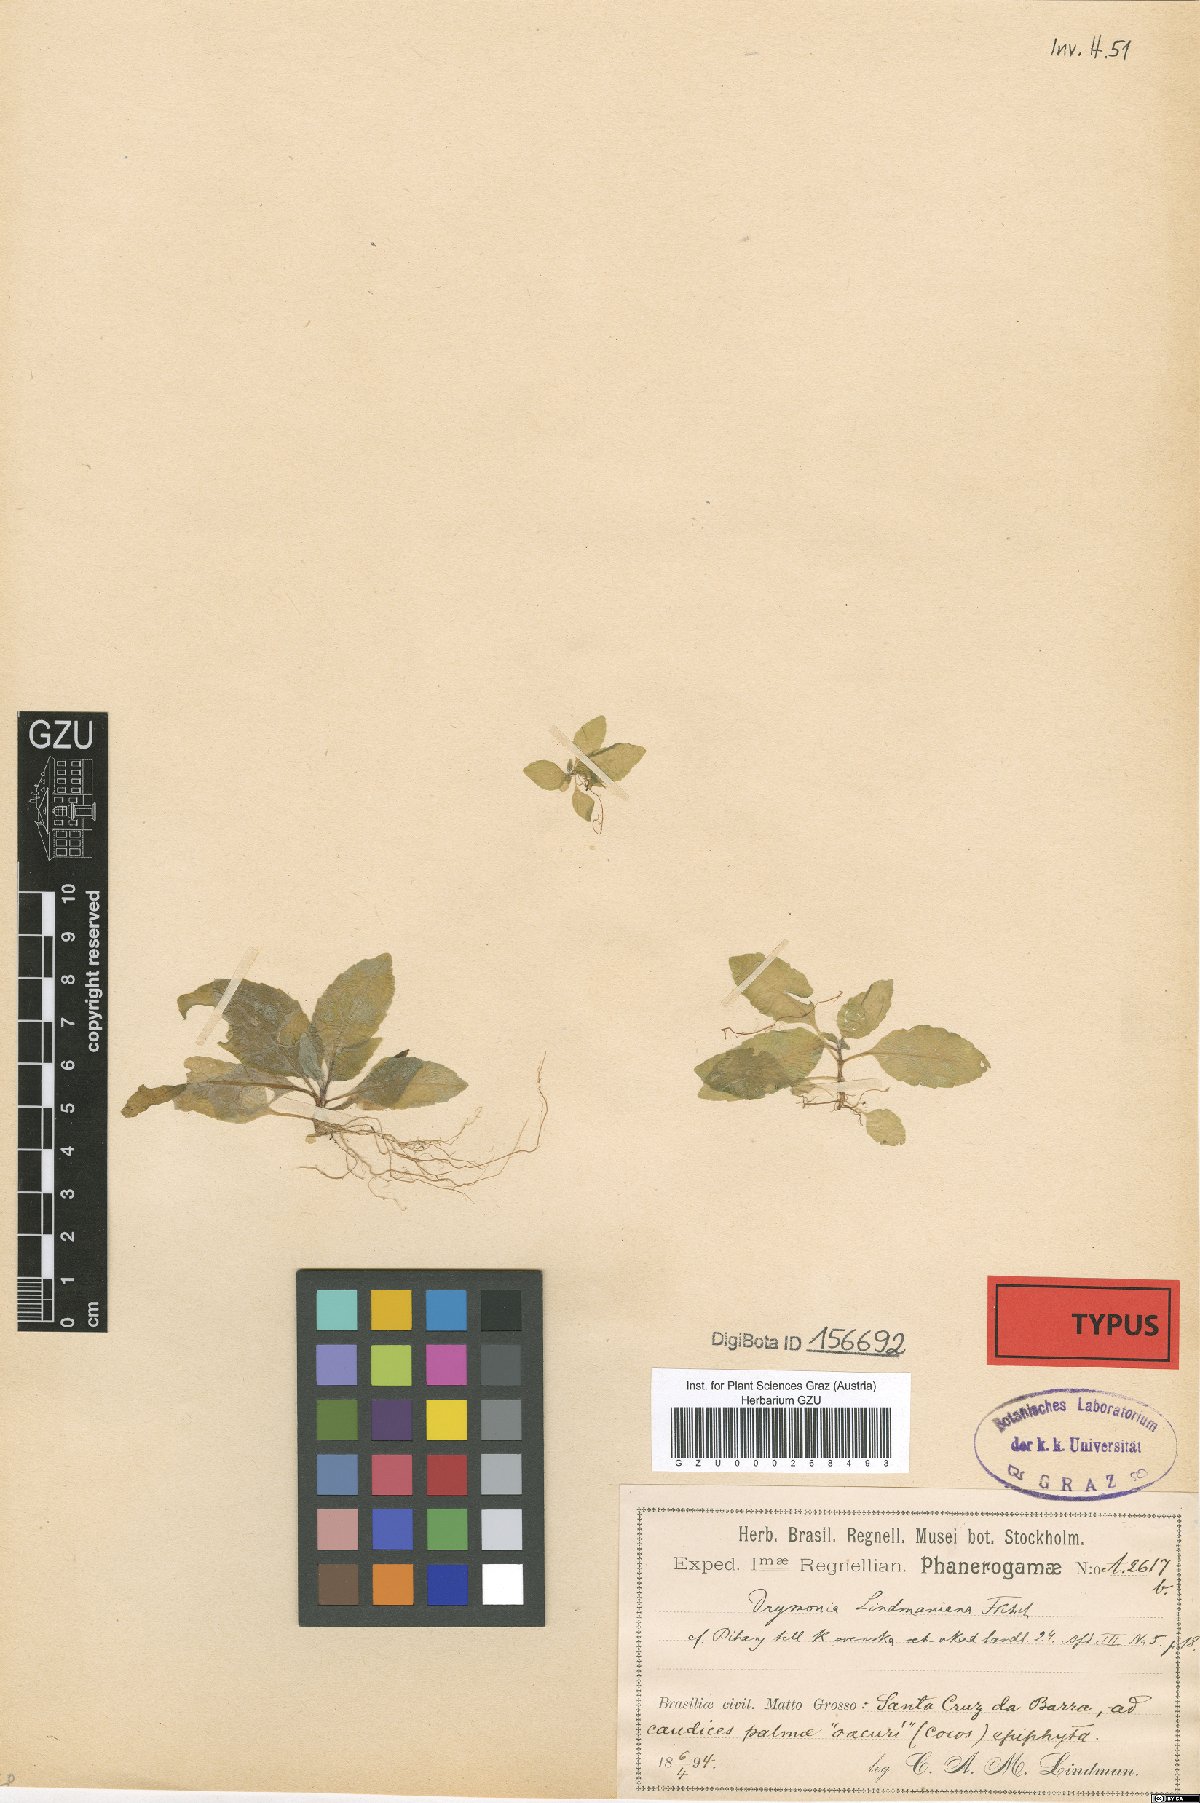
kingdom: Plantae
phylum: Tracheophyta
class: Magnoliopsida
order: Lamiales
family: Gesneriaceae
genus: Drymonia
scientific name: Drymonia serrulata
